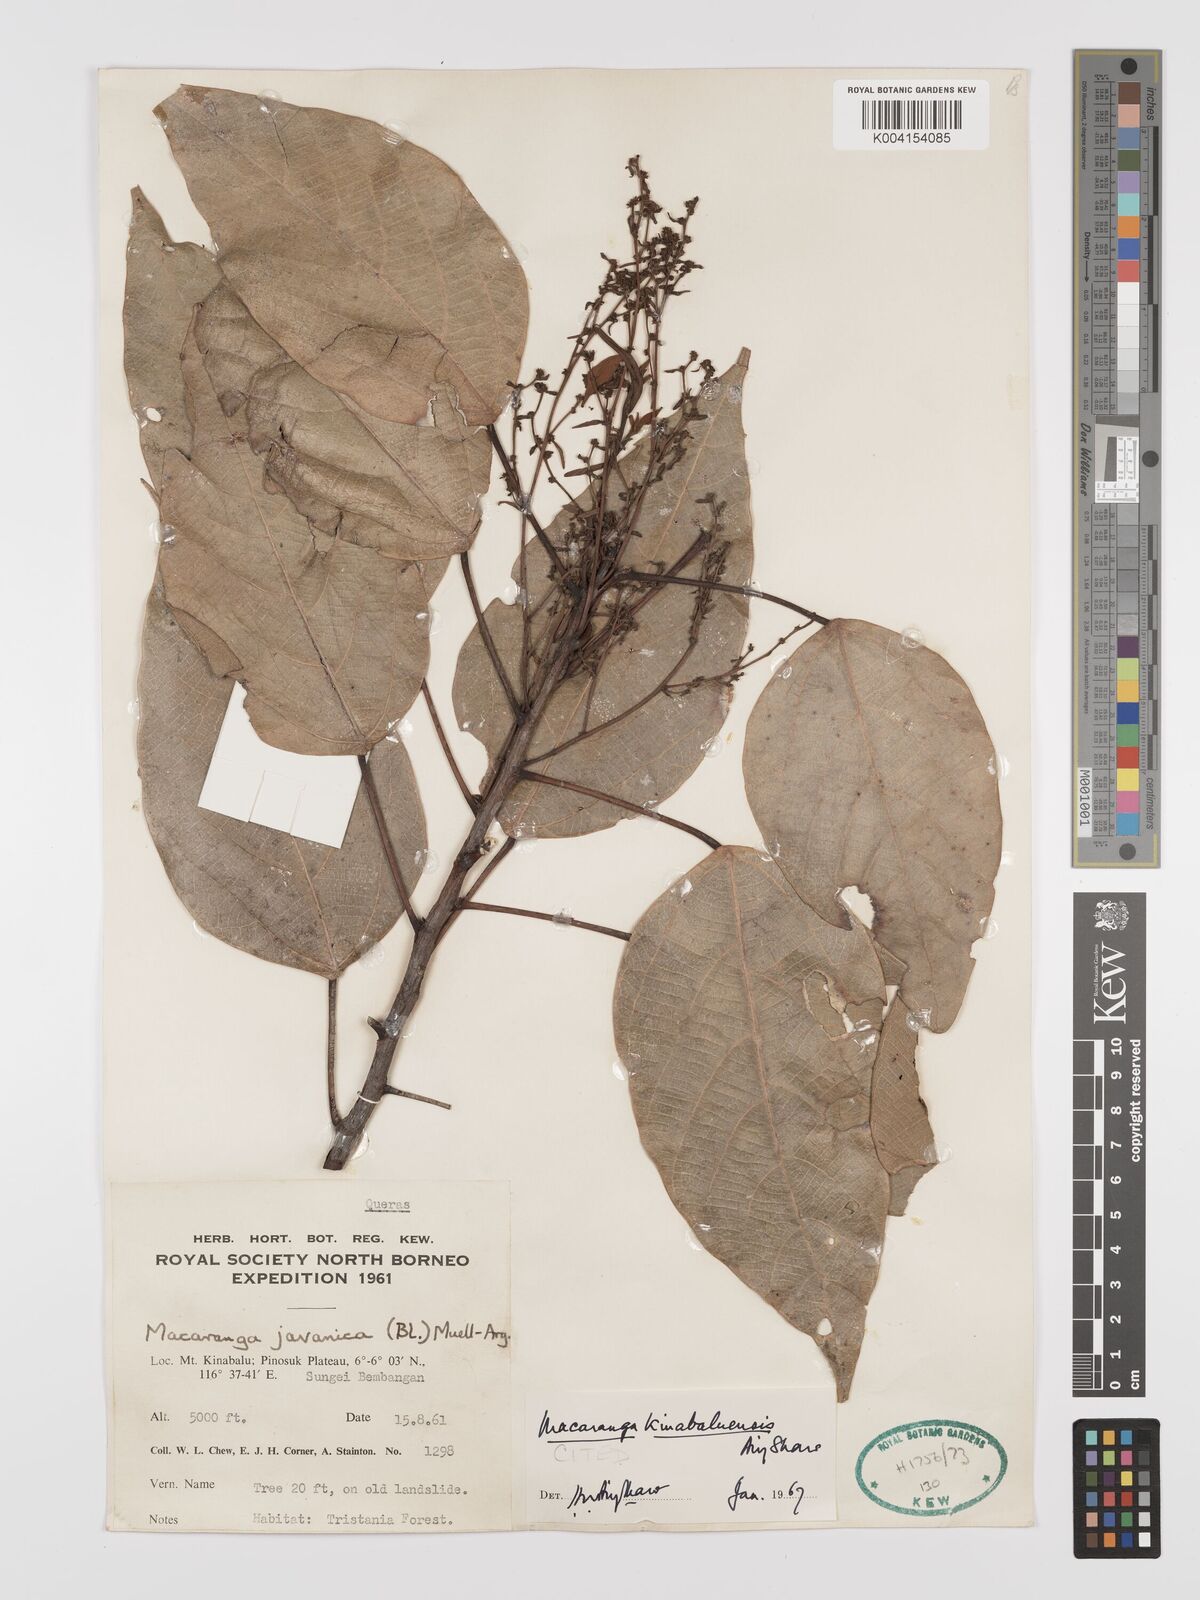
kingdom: Plantae
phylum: Tracheophyta
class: Magnoliopsida
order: Malpighiales
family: Euphorbiaceae
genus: Macaranga
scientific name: Macaranga kinabaluensis
